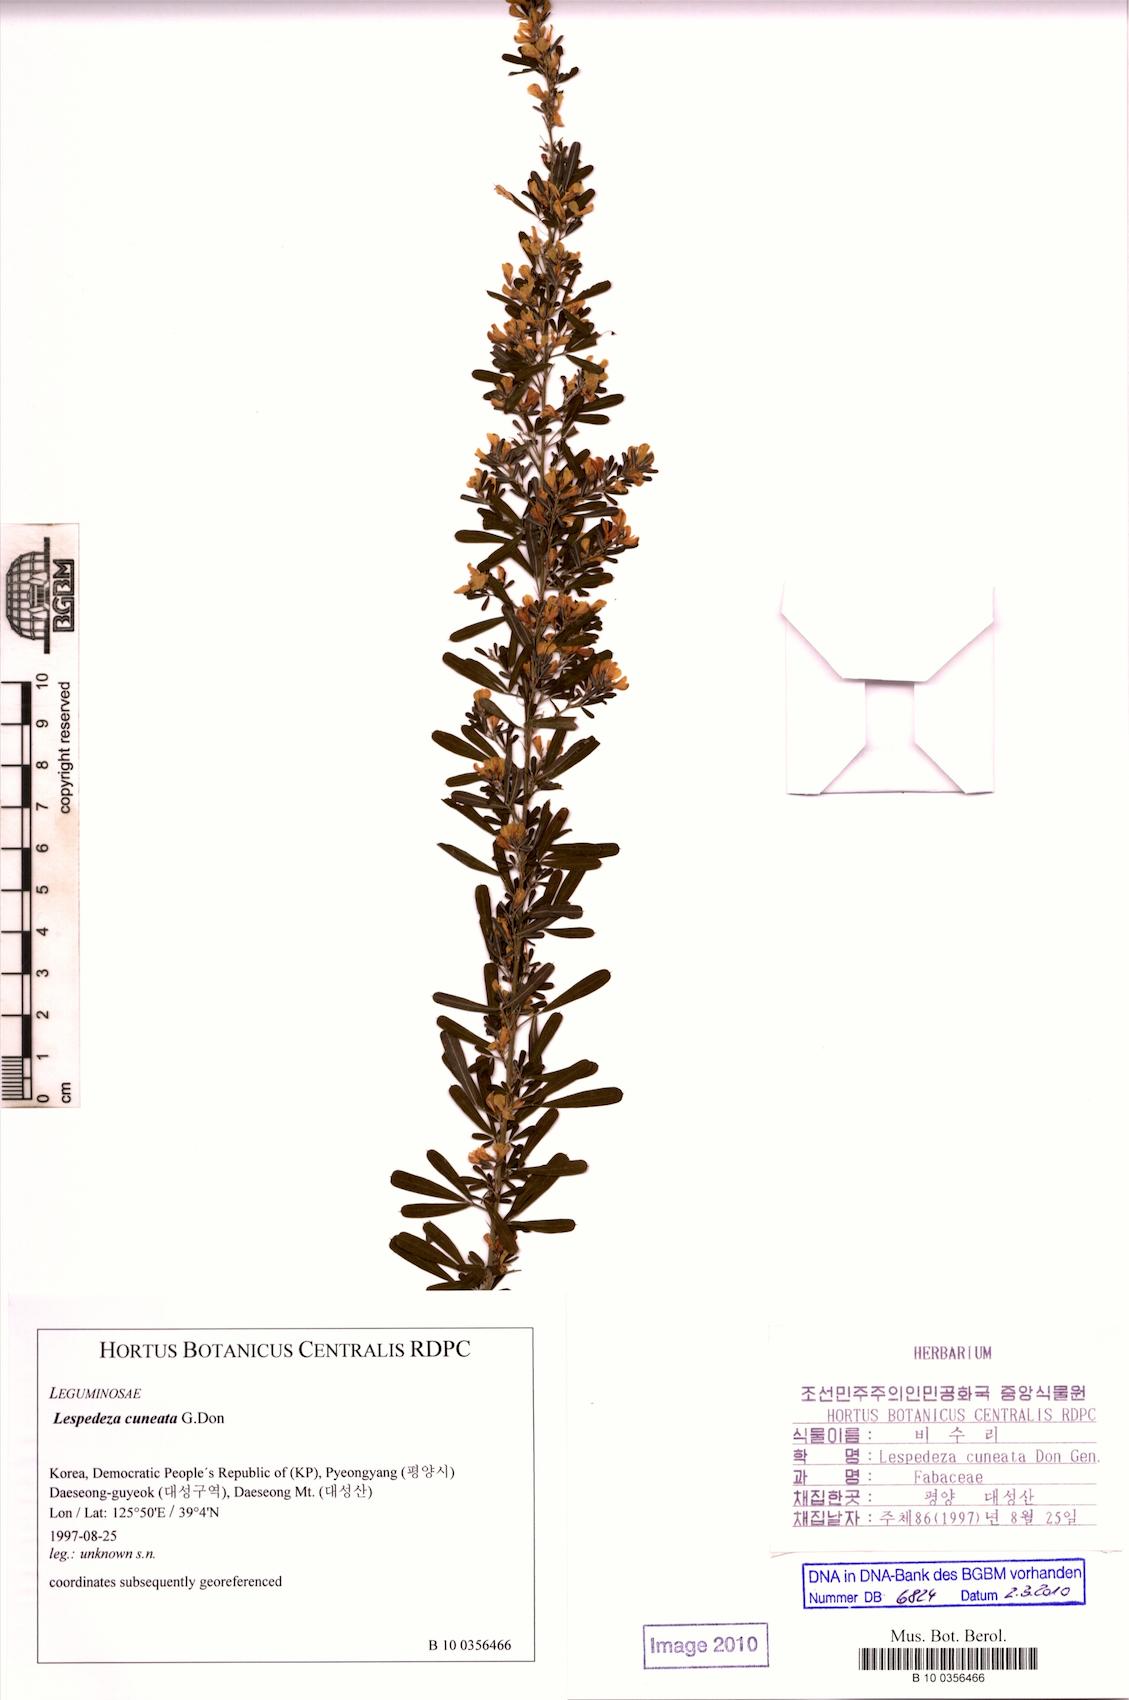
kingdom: Plantae
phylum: Tracheophyta
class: Magnoliopsida
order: Fabales
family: Fabaceae
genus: Lespedeza
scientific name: Lespedeza cuneata
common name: Chinese bush-clover
